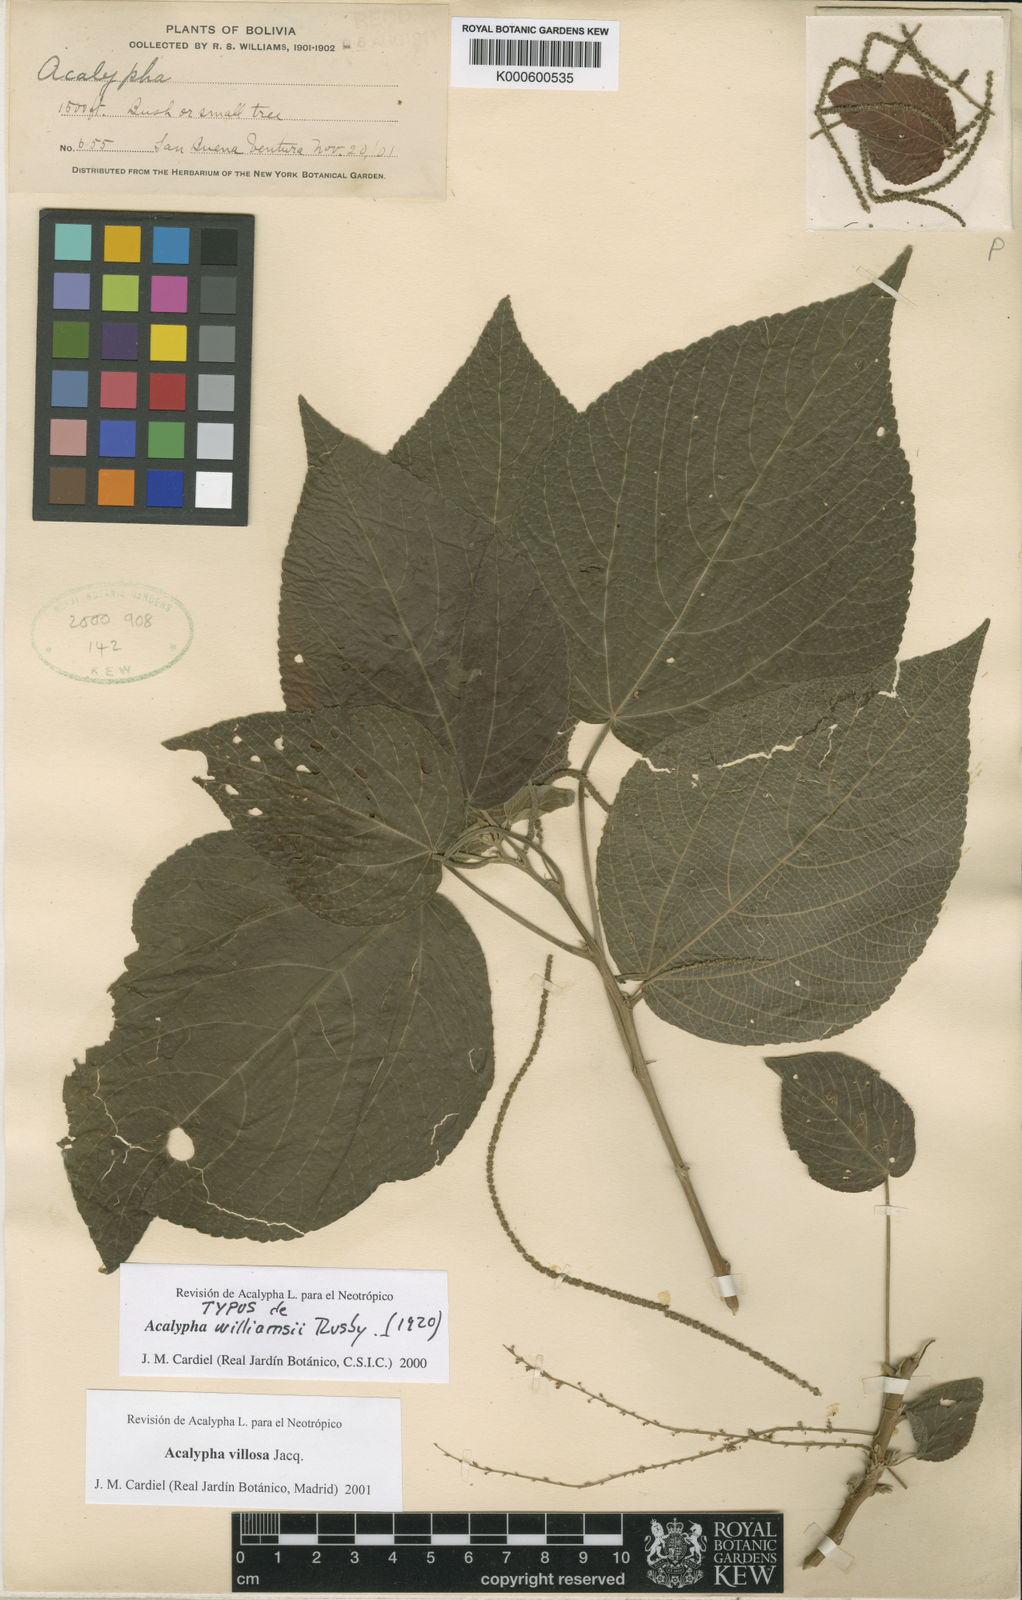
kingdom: Plantae
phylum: Tracheophyta
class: Magnoliopsida
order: Malpighiales
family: Euphorbiaceae
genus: Acalypha
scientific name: Acalypha villosa
